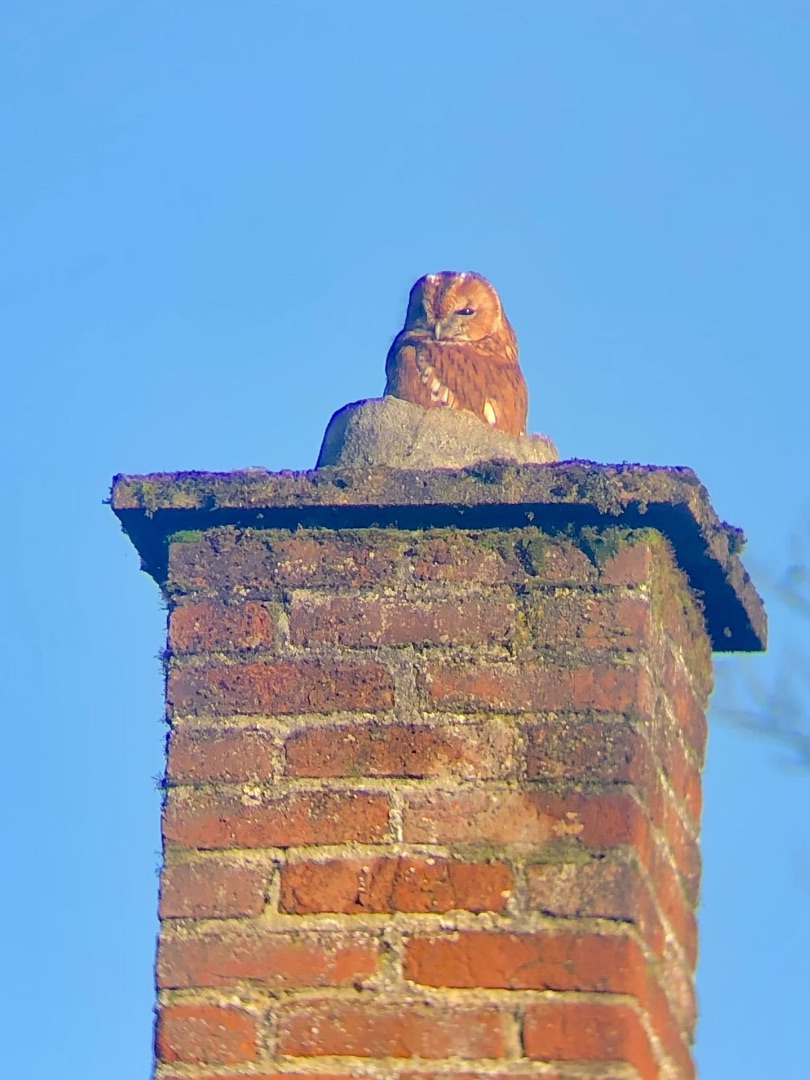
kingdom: Animalia
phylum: Chordata
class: Aves
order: Strigiformes
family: Strigidae
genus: Strix
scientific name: Strix aluco
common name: Natugle
